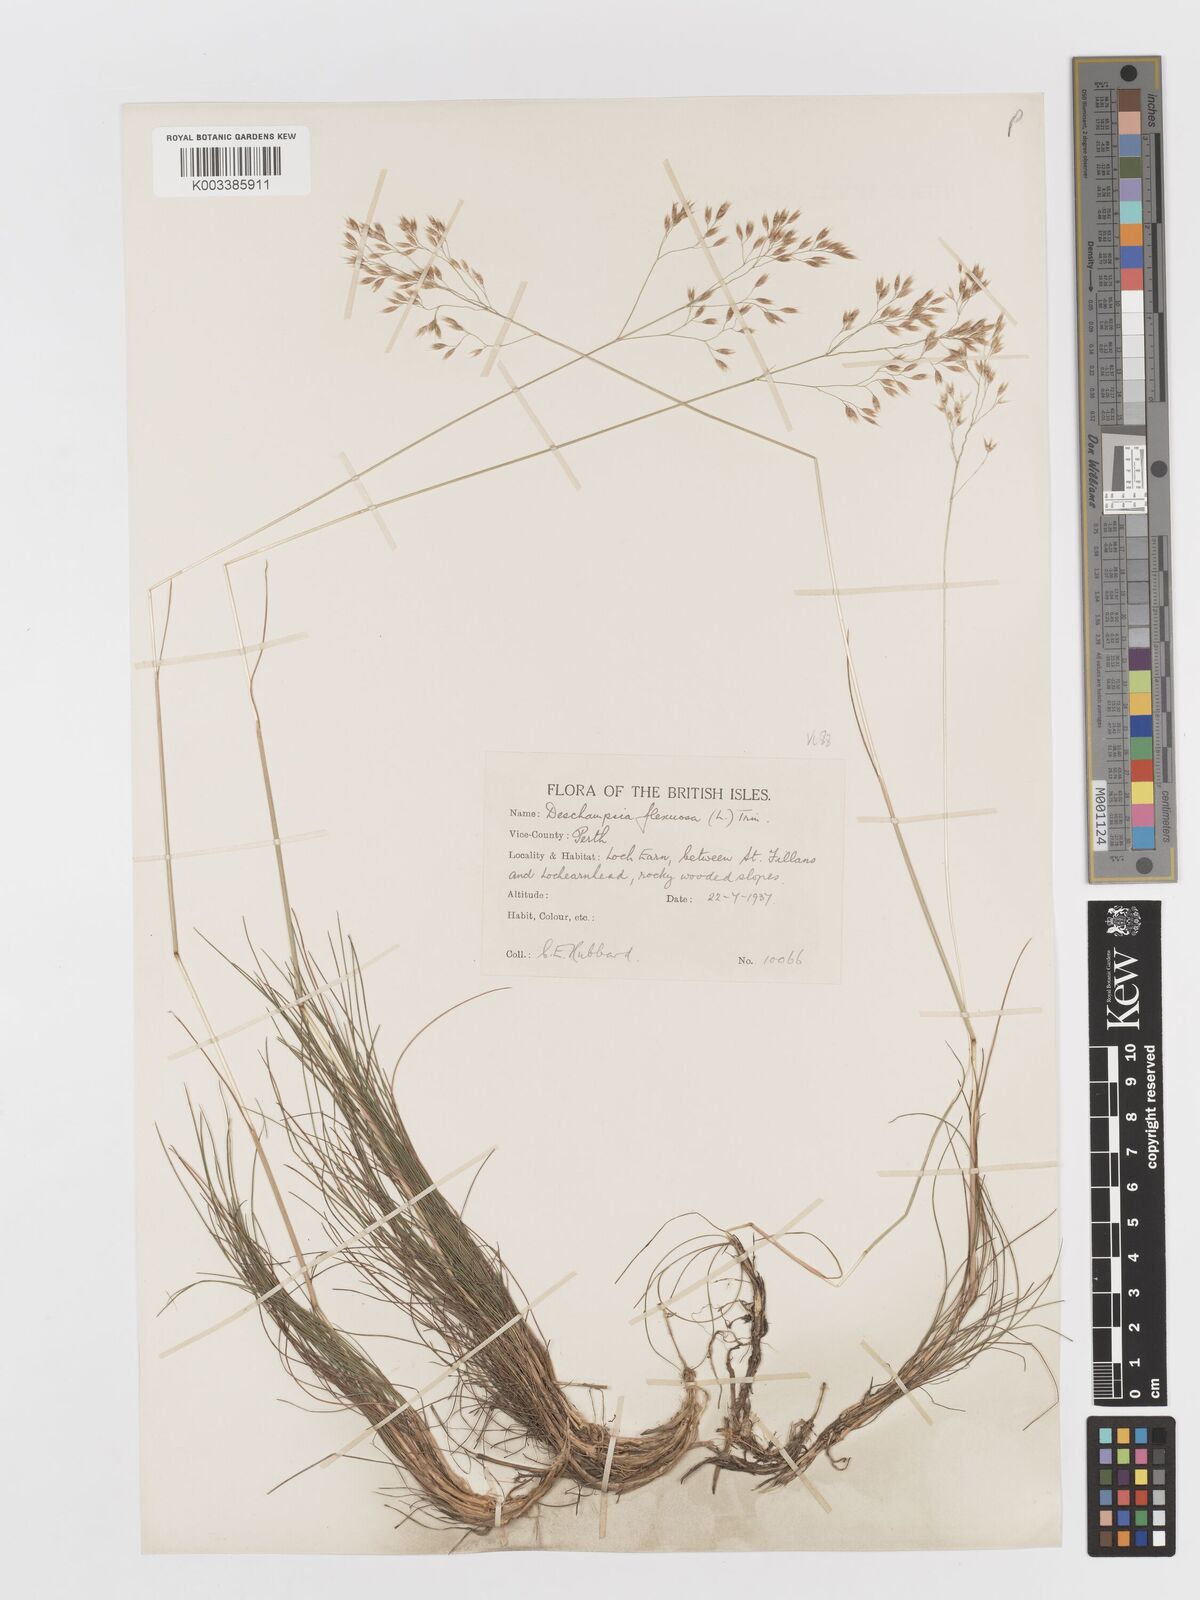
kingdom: Plantae
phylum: Tracheophyta
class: Liliopsida
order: Poales
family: Poaceae
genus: Avenella
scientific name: Avenella flexuosa
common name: Wavy hairgrass
